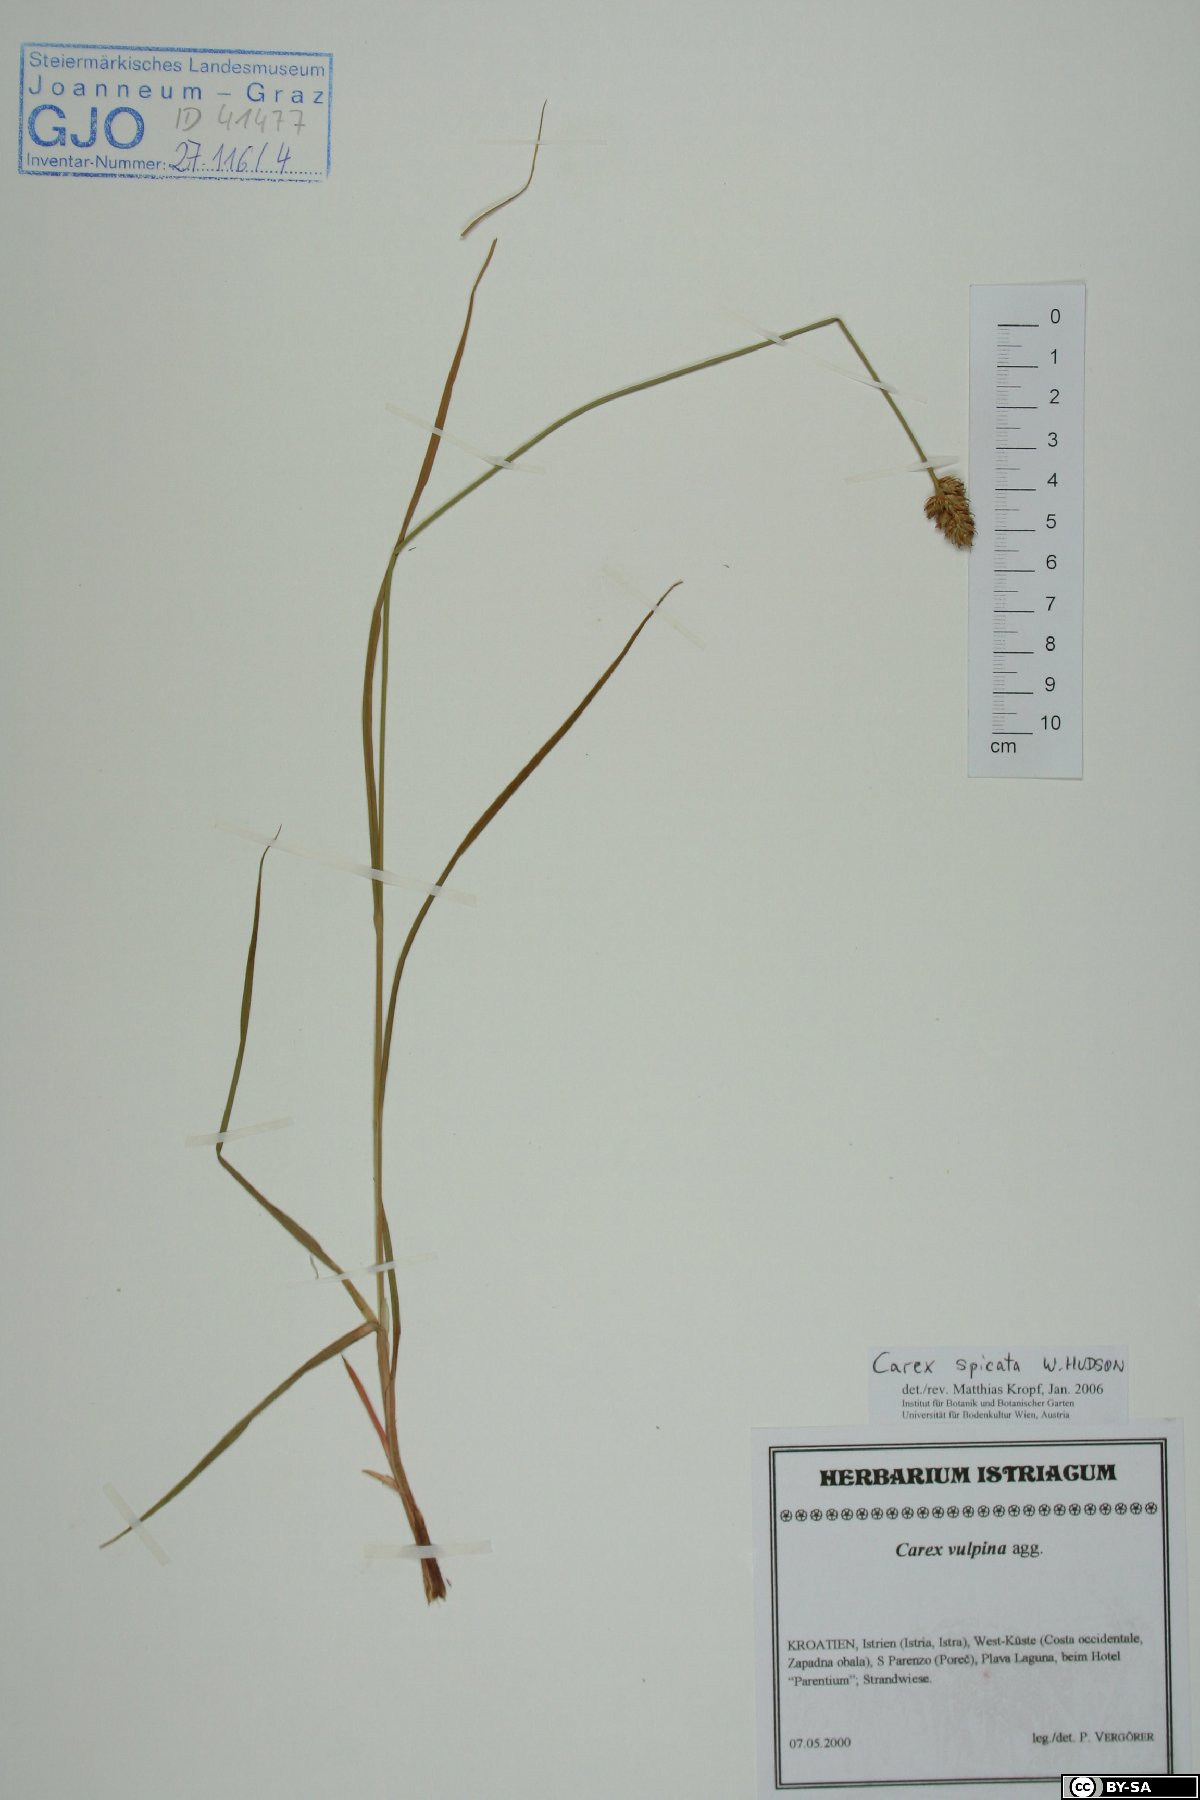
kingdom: Plantae
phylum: Tracheophyta
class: Liliopsida
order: Poales
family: Cyperaceae
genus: Carex
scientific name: Carex spicata
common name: Spiked sedge
